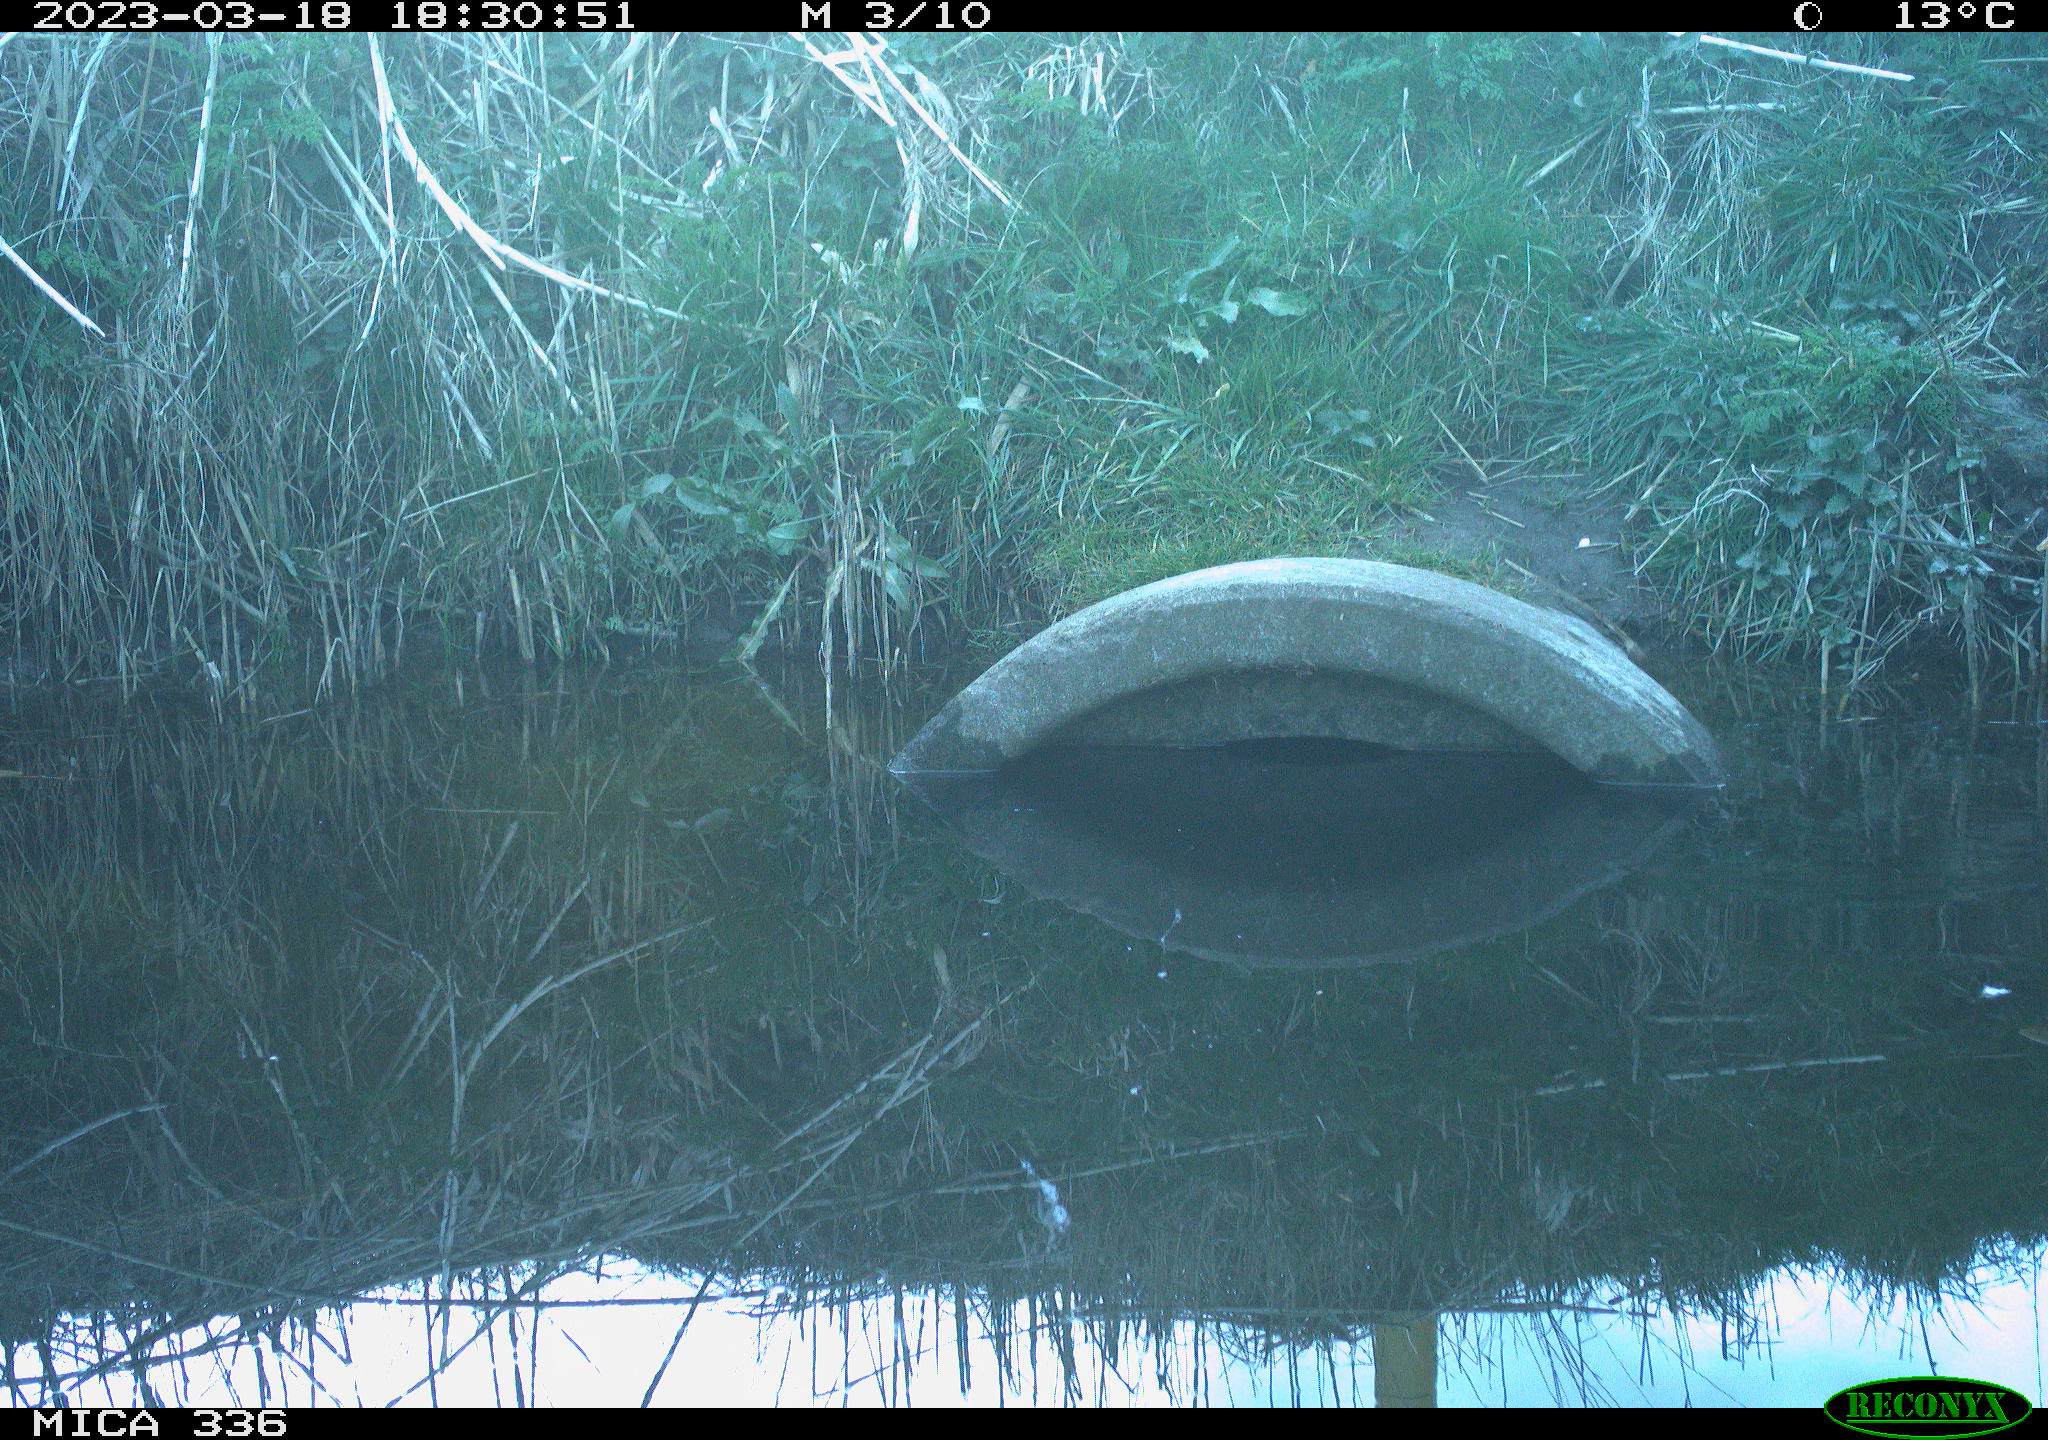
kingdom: Animalia
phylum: Chordata
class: Aves
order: Pelecaniformes
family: Ardeidae
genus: Ardea
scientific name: Ardea cinerea
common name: Grey heron
